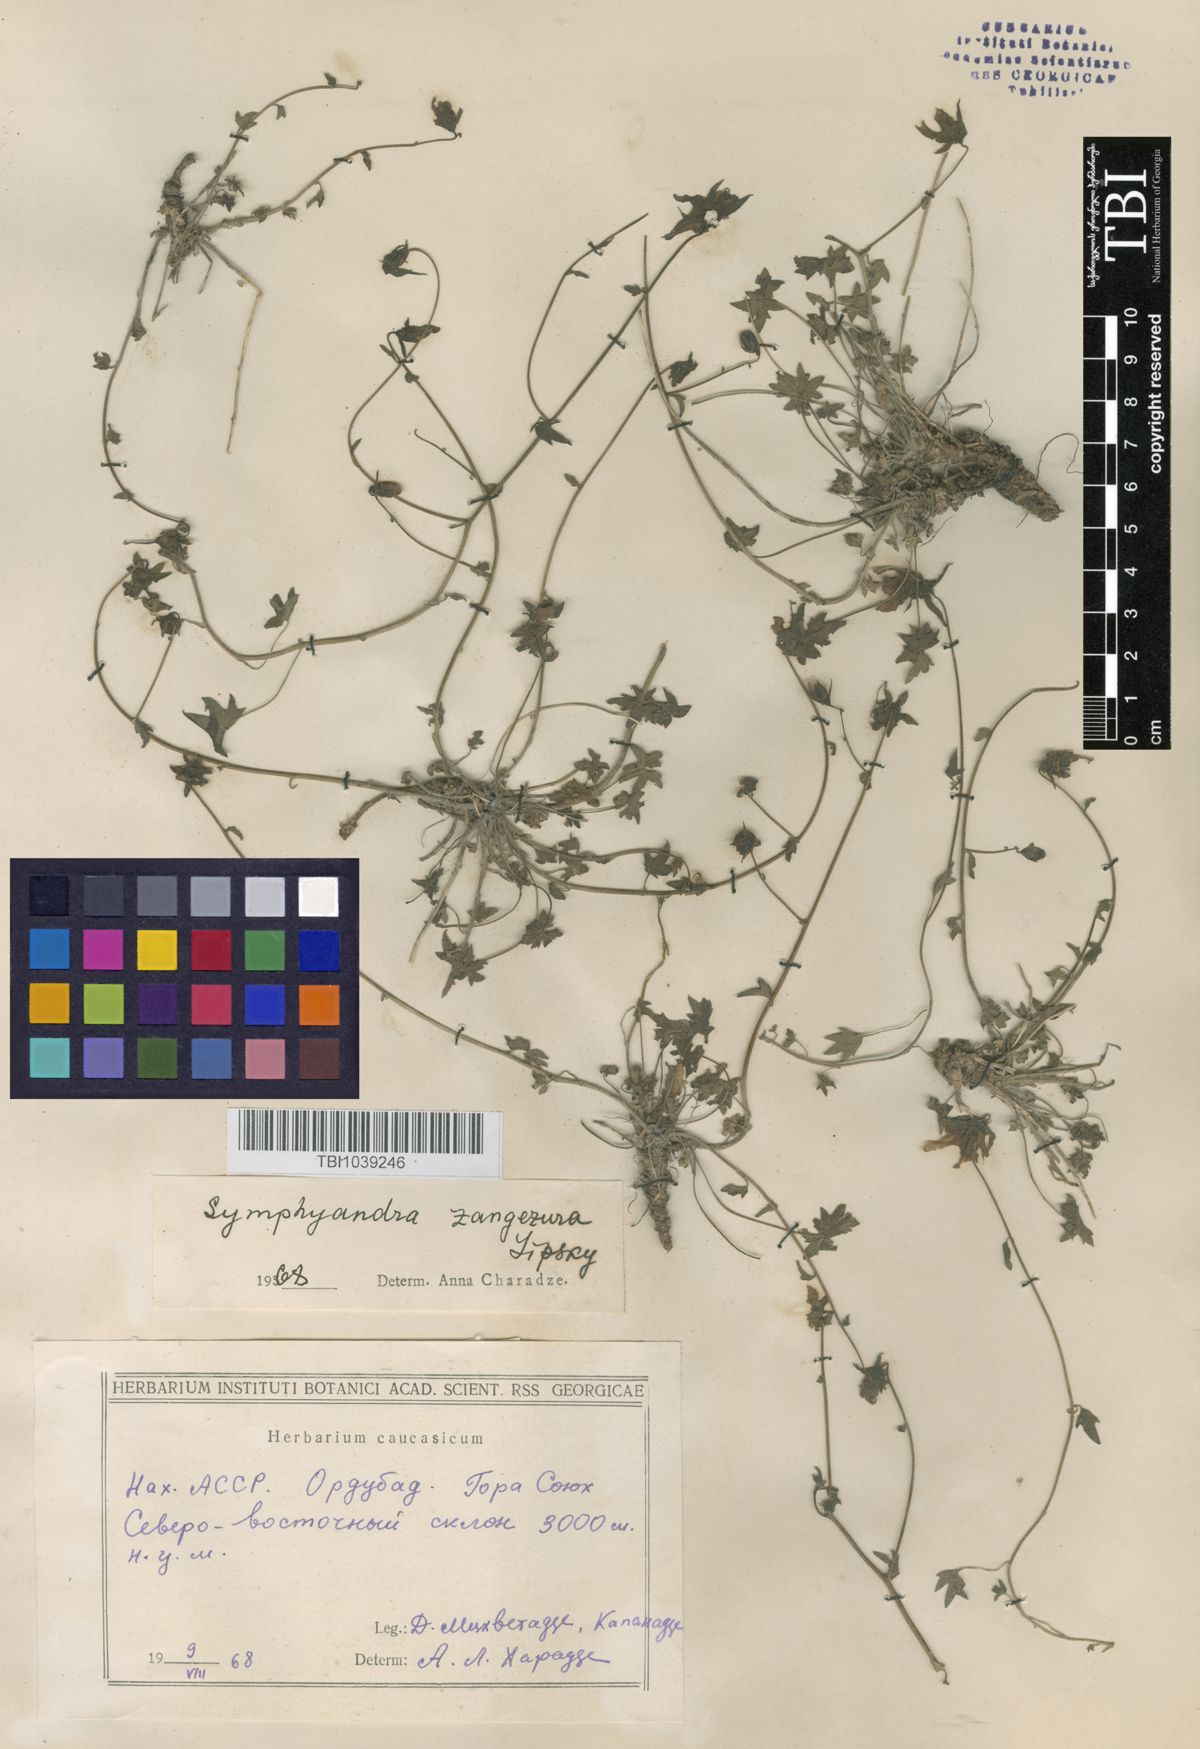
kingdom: Plantae
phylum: Tracheophyta
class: Magnoliopsida
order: Asterales
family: Campanulaceae
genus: Campanula
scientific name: Campanula zangezura
